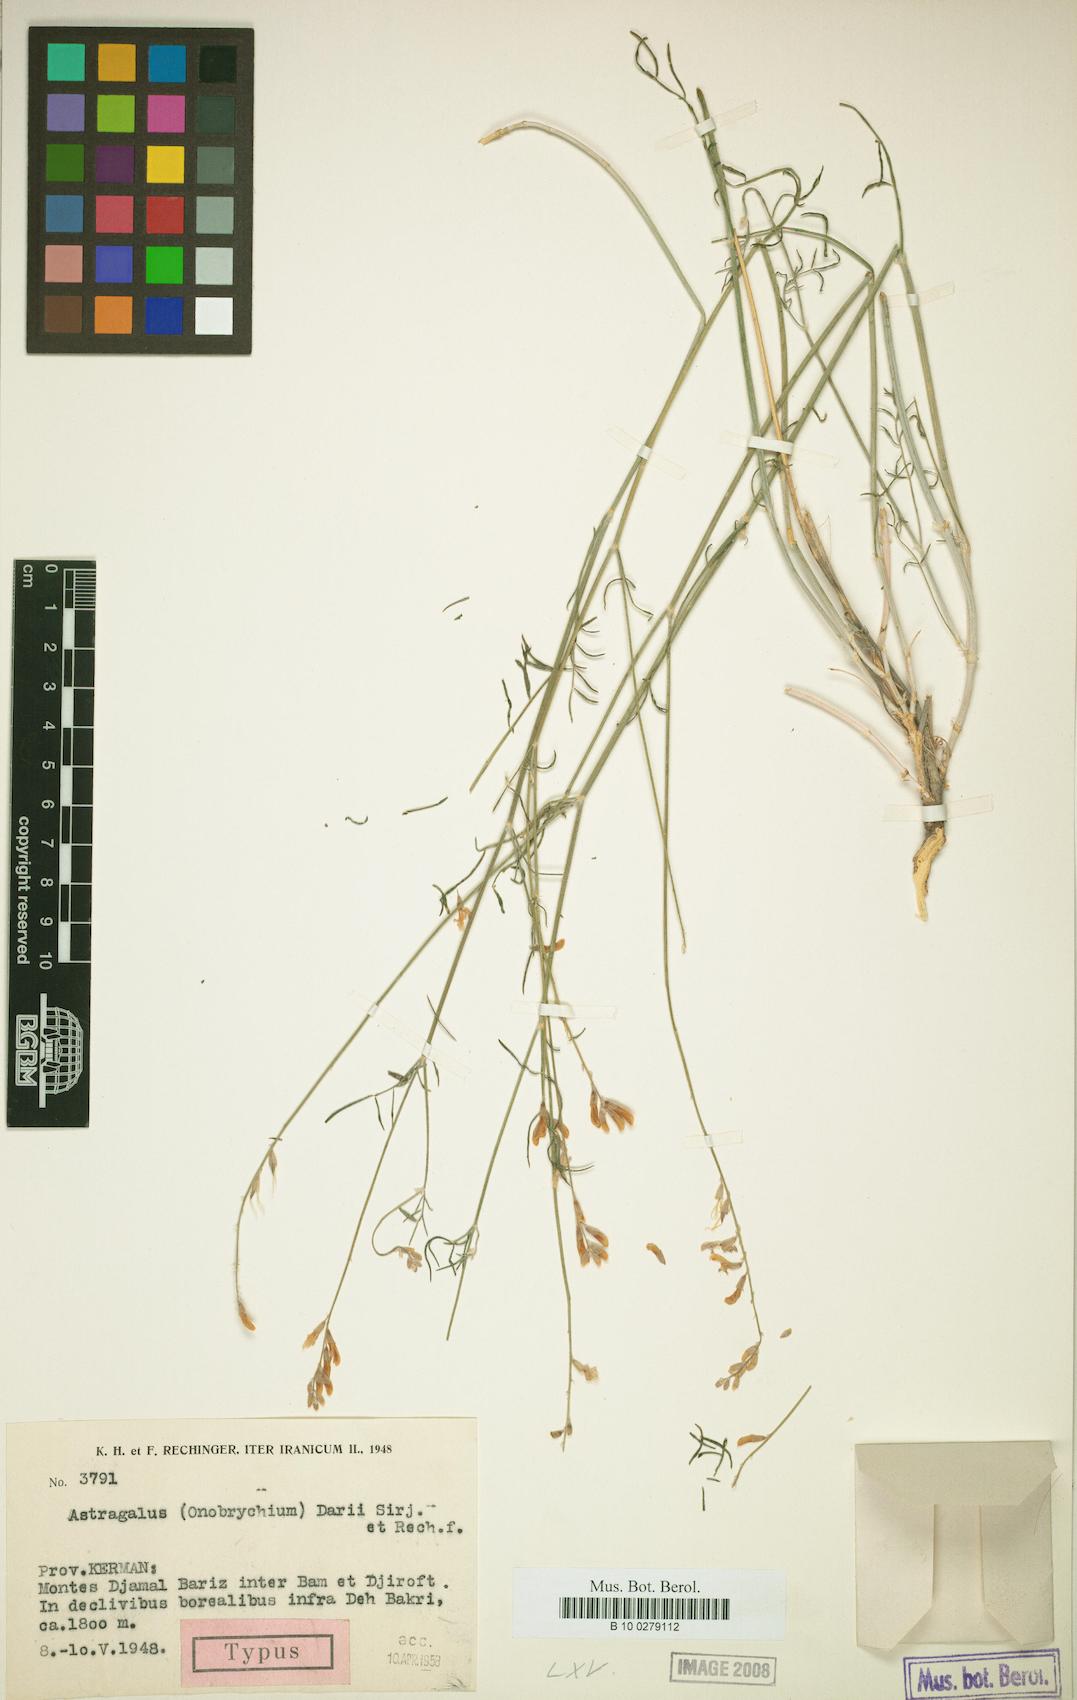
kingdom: Plantae
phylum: Tracheophyta
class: Magnoliopsida
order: Fabales
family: Fabaceae
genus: Astragalus
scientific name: Astragalus huthianus
